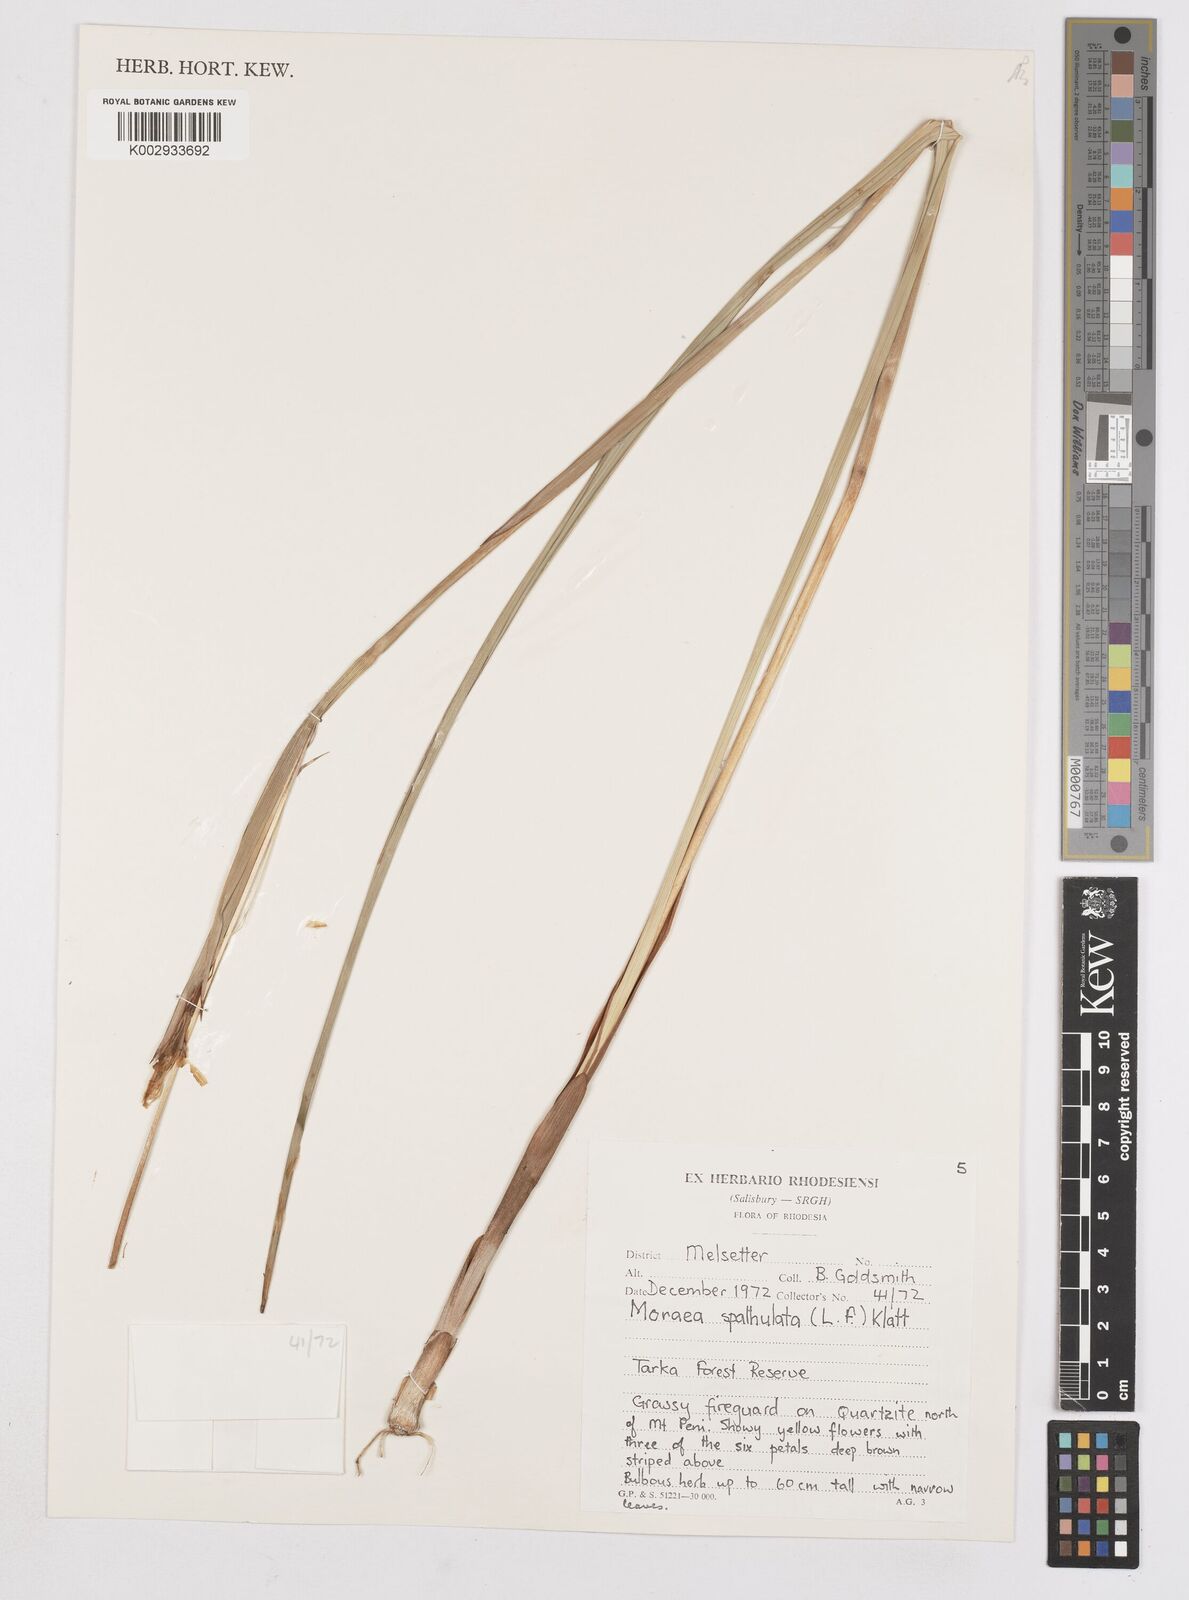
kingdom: Plantae
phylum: Tracheophyta
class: Liliopsida
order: Asparagales
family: Iridaceae
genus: Moraea
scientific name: Moraea spathulata
